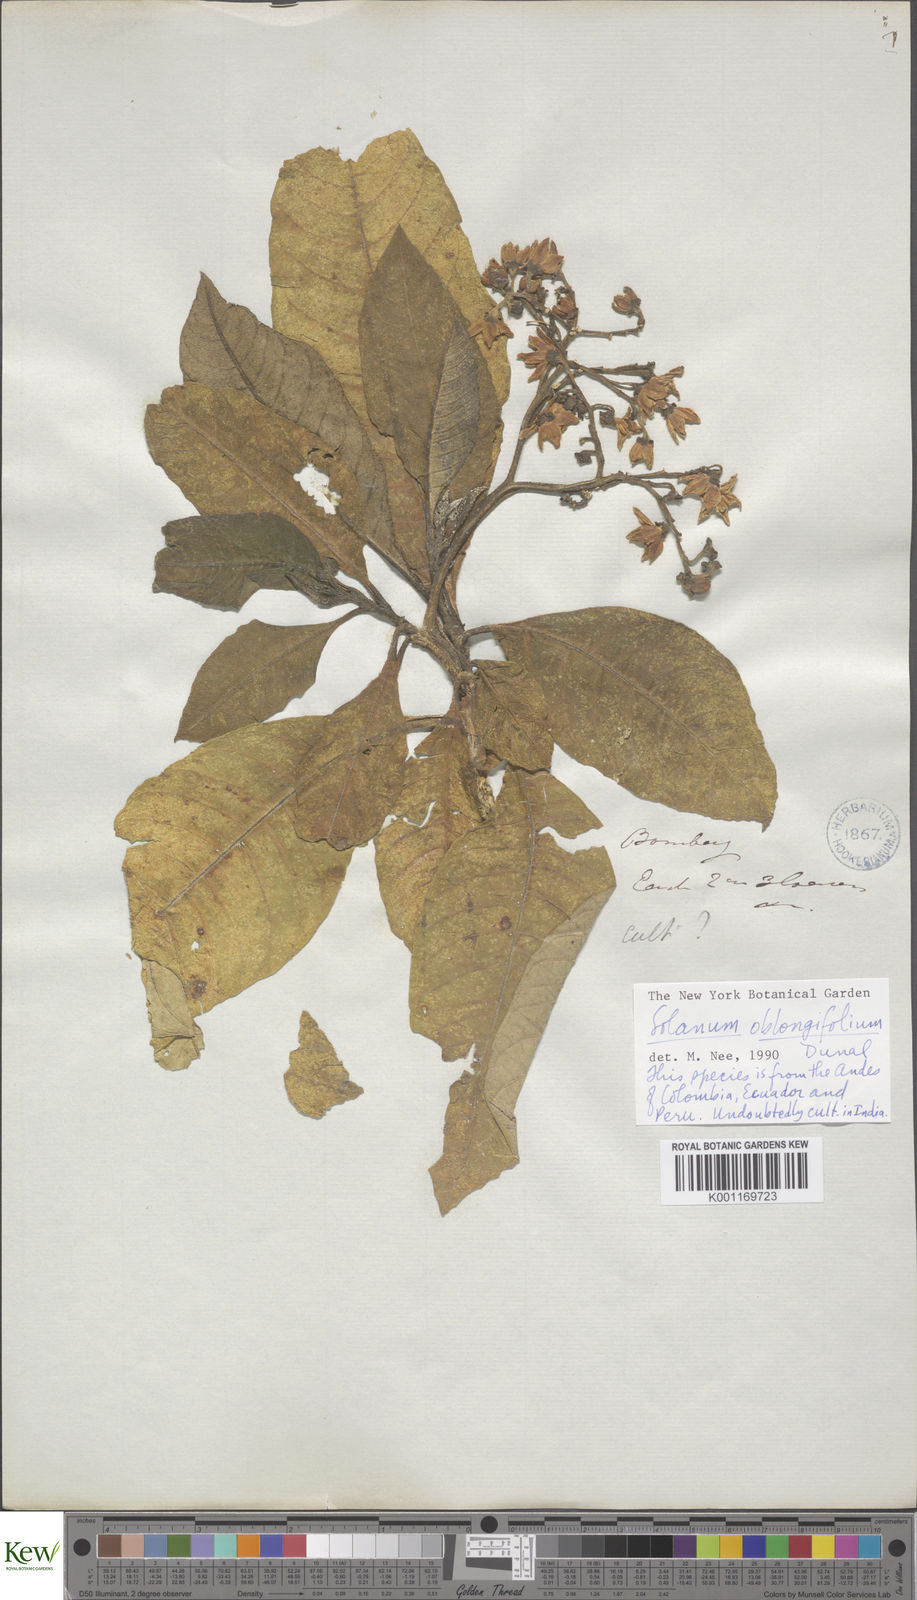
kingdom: Plantae
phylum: Tracheophyta
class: Magnoliopsida
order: Solanales
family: Solanaceae
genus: Solanum
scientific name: Solanum oblongifolium
